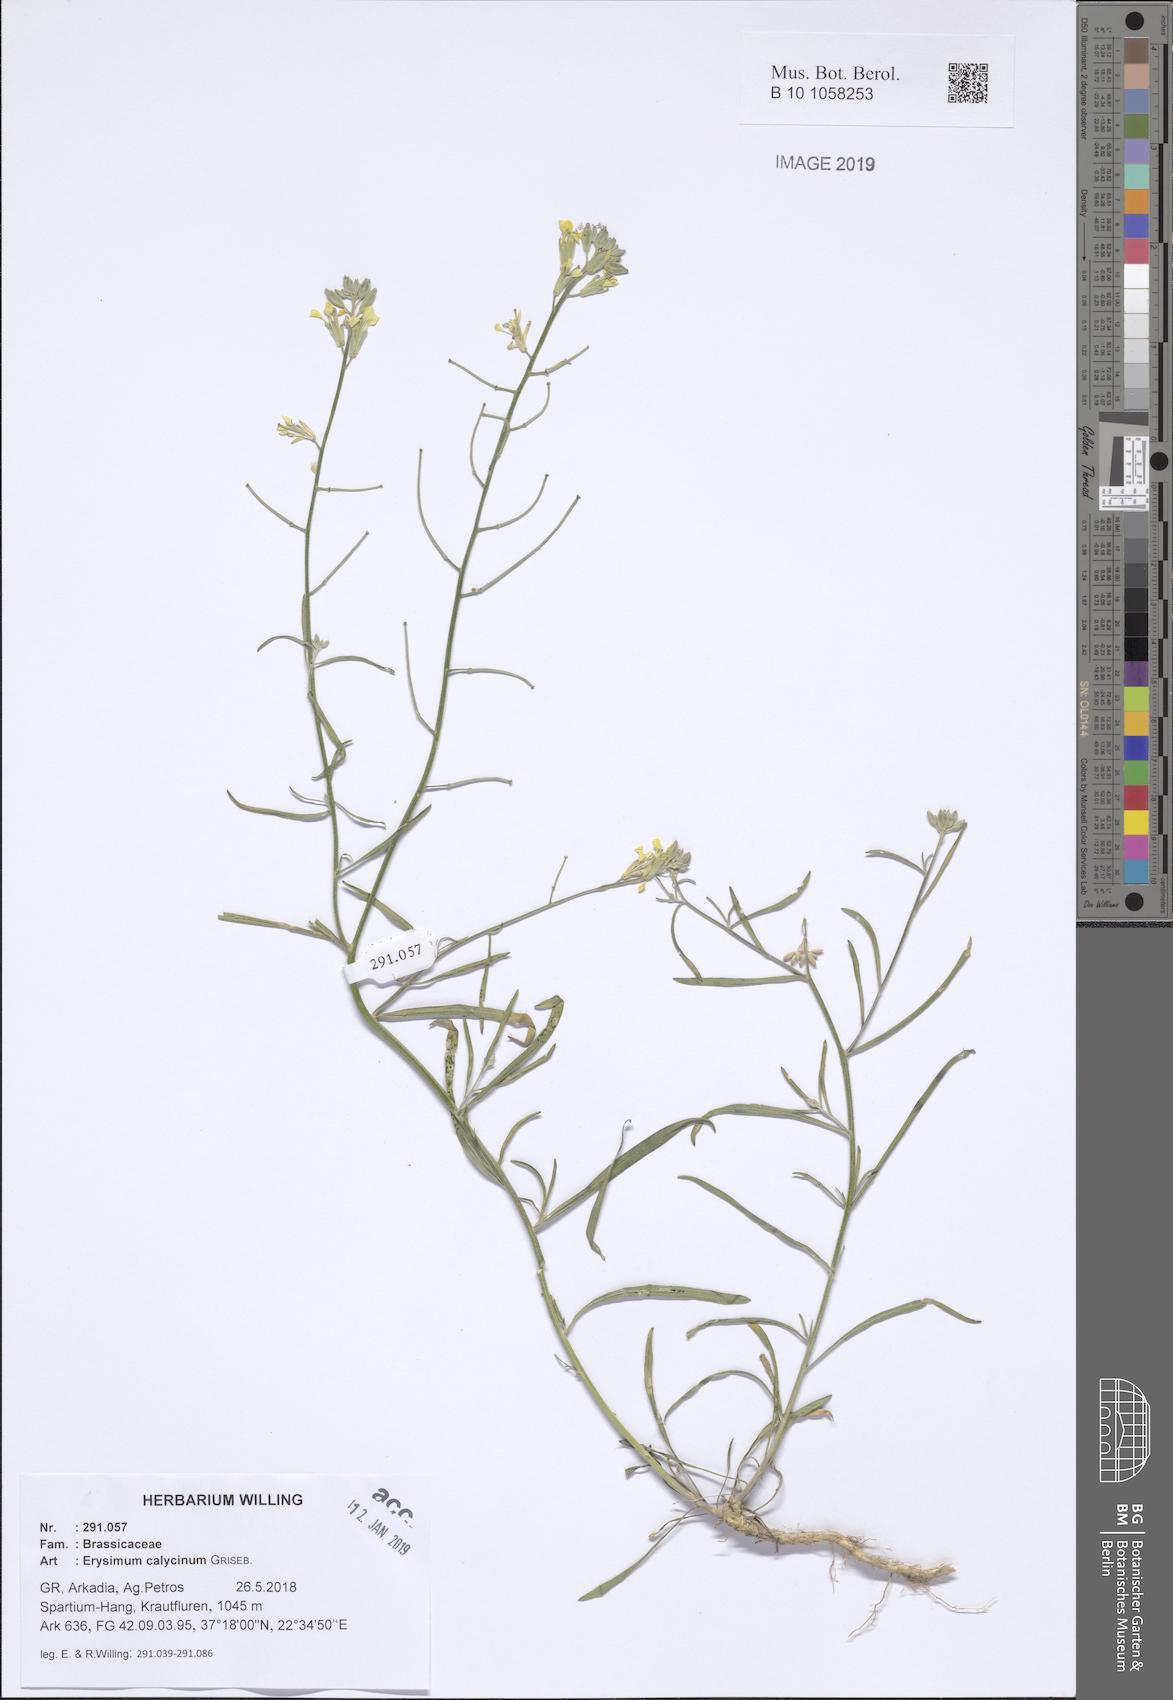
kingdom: Plantae
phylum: Tracheophyta
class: Magnoliopsida
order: Brassicales
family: Brassicaceae
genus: Erysimum
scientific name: Erysimum calycinum
